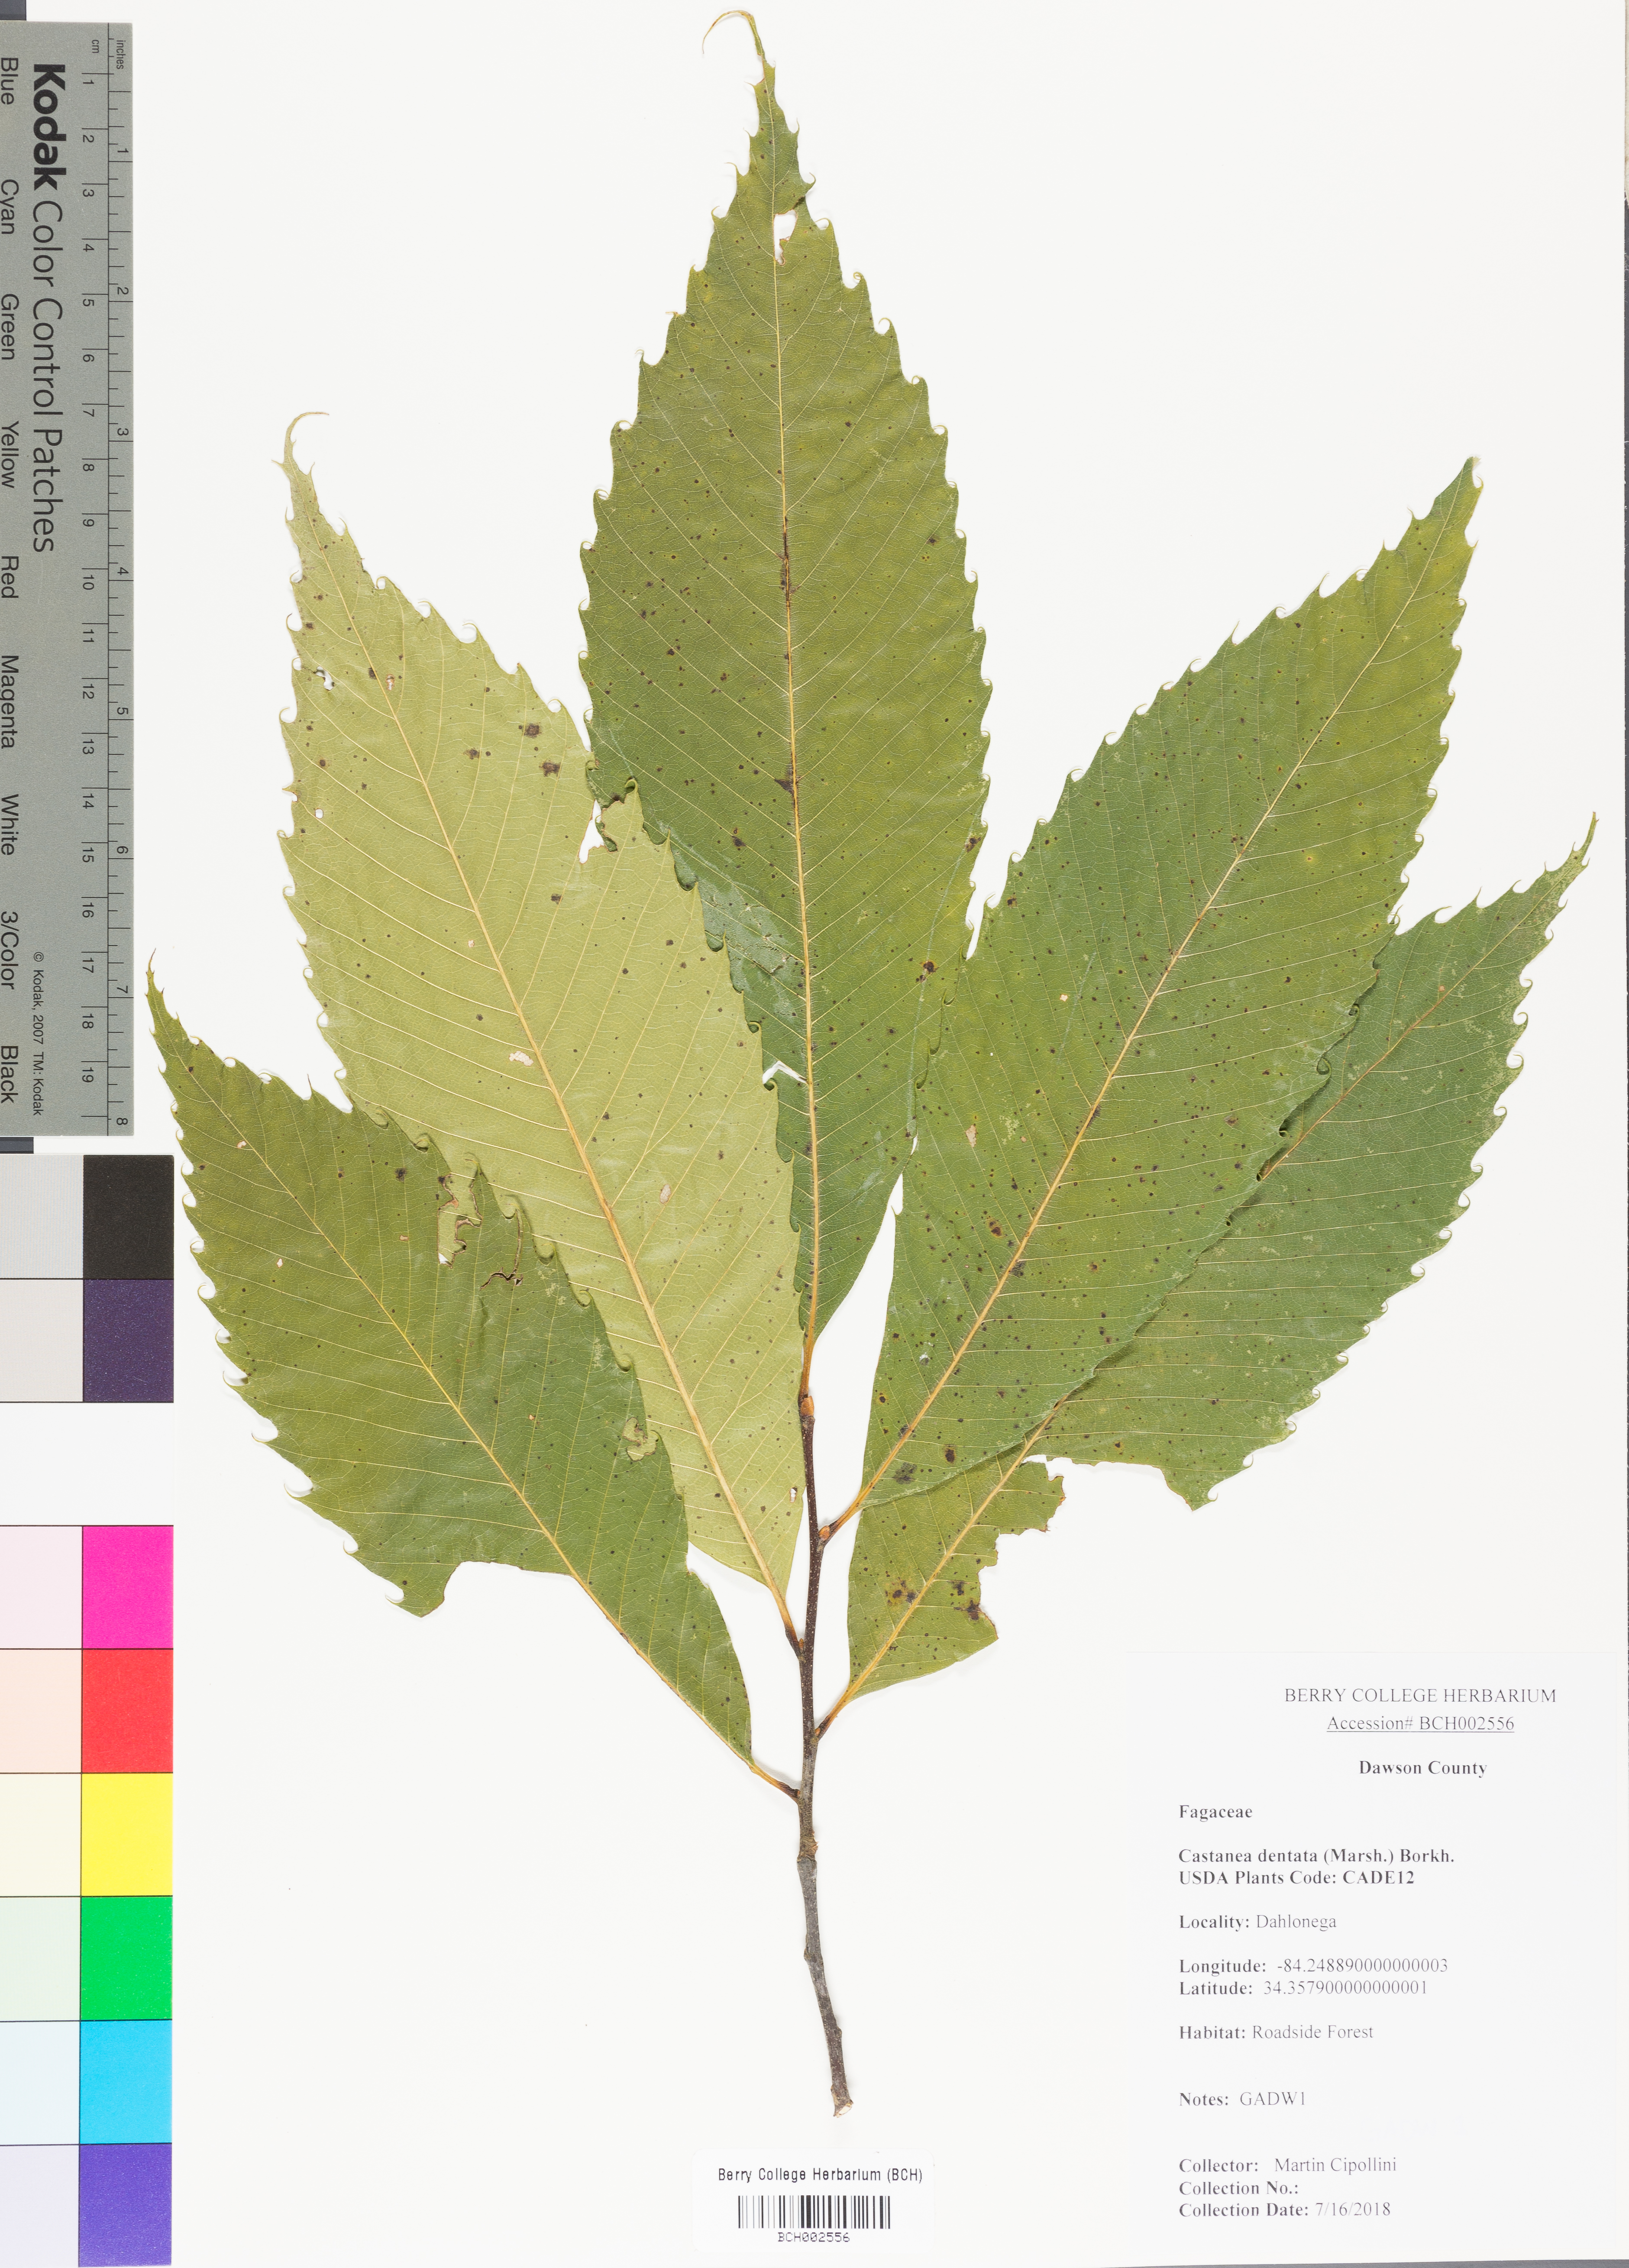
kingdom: Plantae
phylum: Tracheophyta
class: Magnoliopsida
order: Fagales
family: Fagaceae
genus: Castanea
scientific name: Castanea dentata
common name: American chestnut
